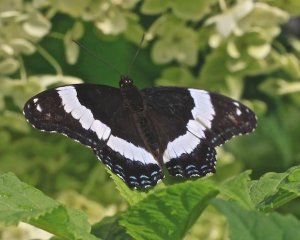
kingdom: Animalia
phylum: Arthropoda
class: Insecta
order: Lepidoptera
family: Nymphalidae
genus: Limenitis
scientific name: Limenitis arthemis
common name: Red-spotted Admiral
